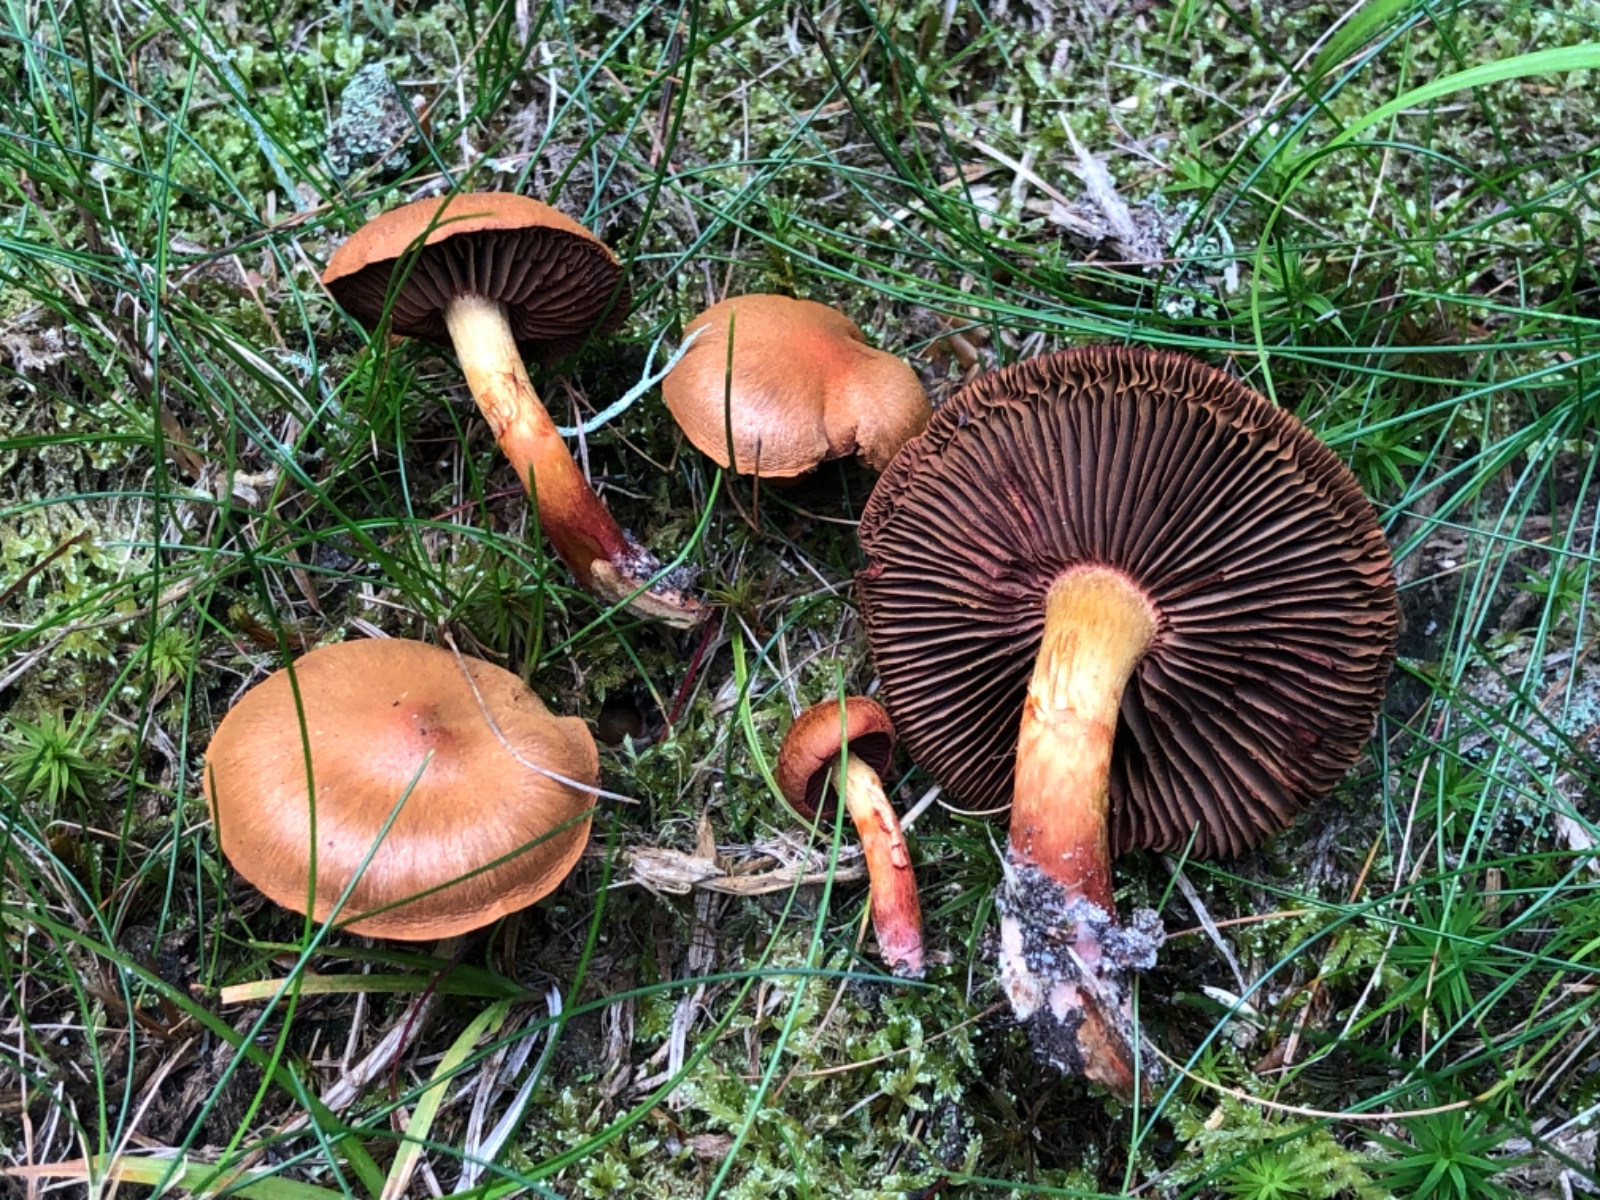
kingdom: Fungi
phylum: Basidiomycota
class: Agaricomycetes
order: Agaricales
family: Cortinariaceae
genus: Cortinarius
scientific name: Cortinarius purpureus
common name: brunrød slørhat
